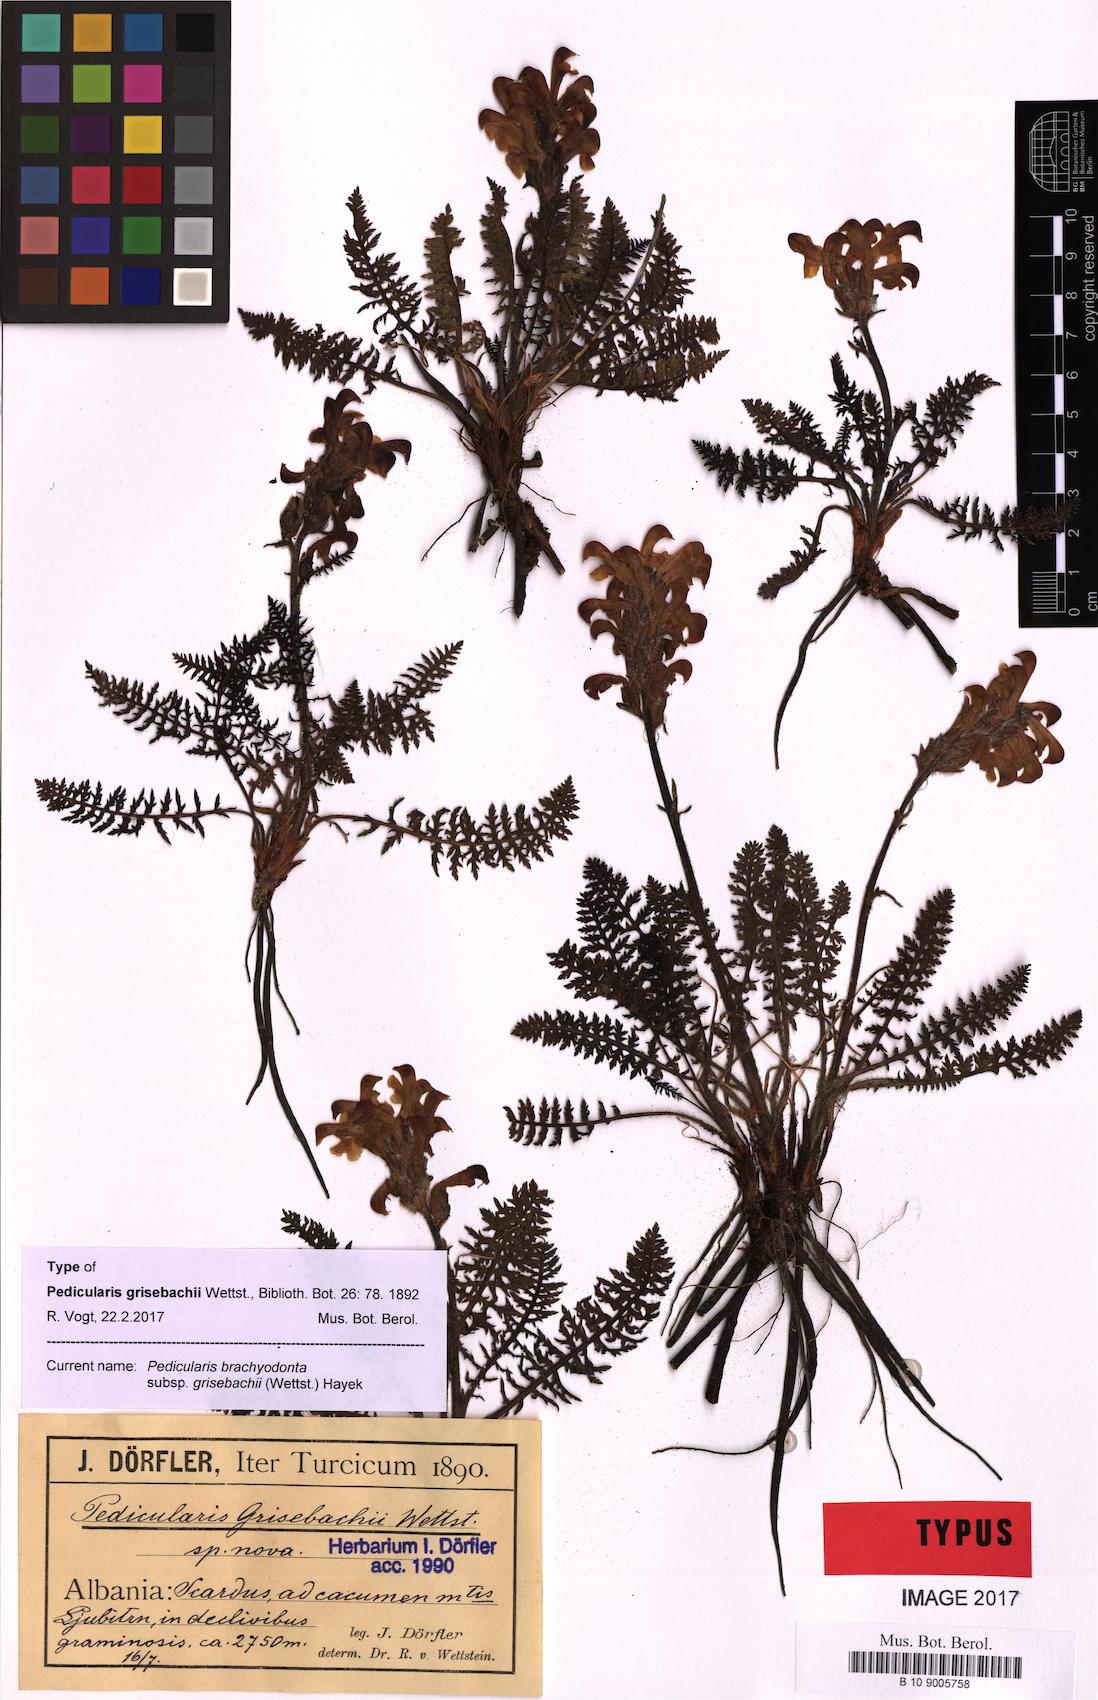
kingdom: Plantae
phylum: Tracheophyta
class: Magnoliopsida
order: Lamiales
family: Orobanchaceae
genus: Pedicularis
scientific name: Pedicularis brachyodonta
